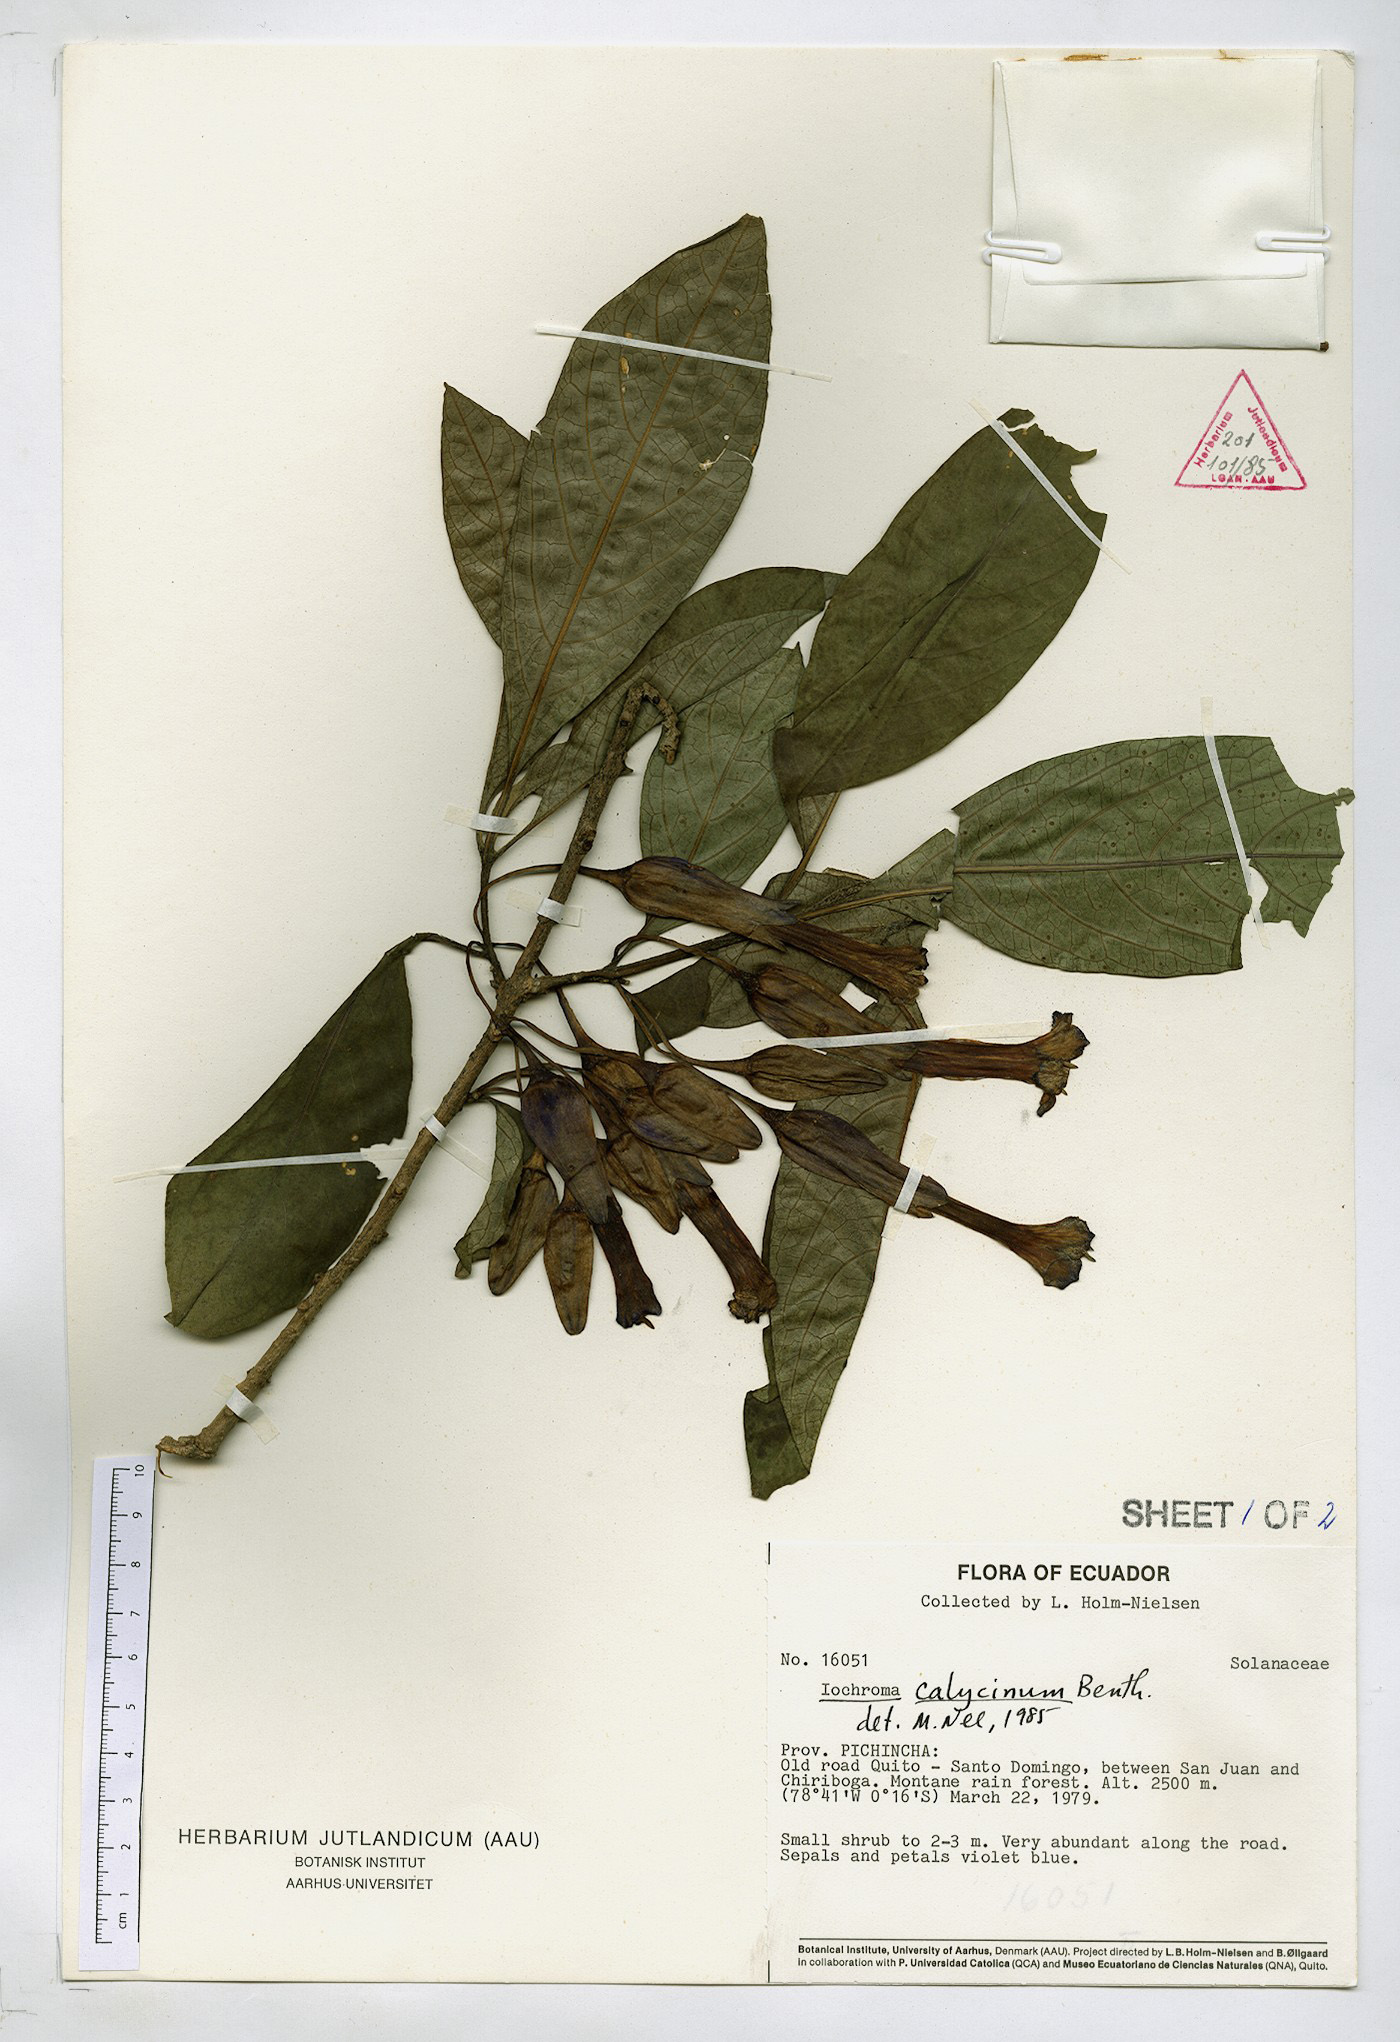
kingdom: Plantae
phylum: Tracheophyta
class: Magnoliopsida
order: Solanales
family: Solanaceae
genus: Iochroma
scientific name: Iochroma calycinum
